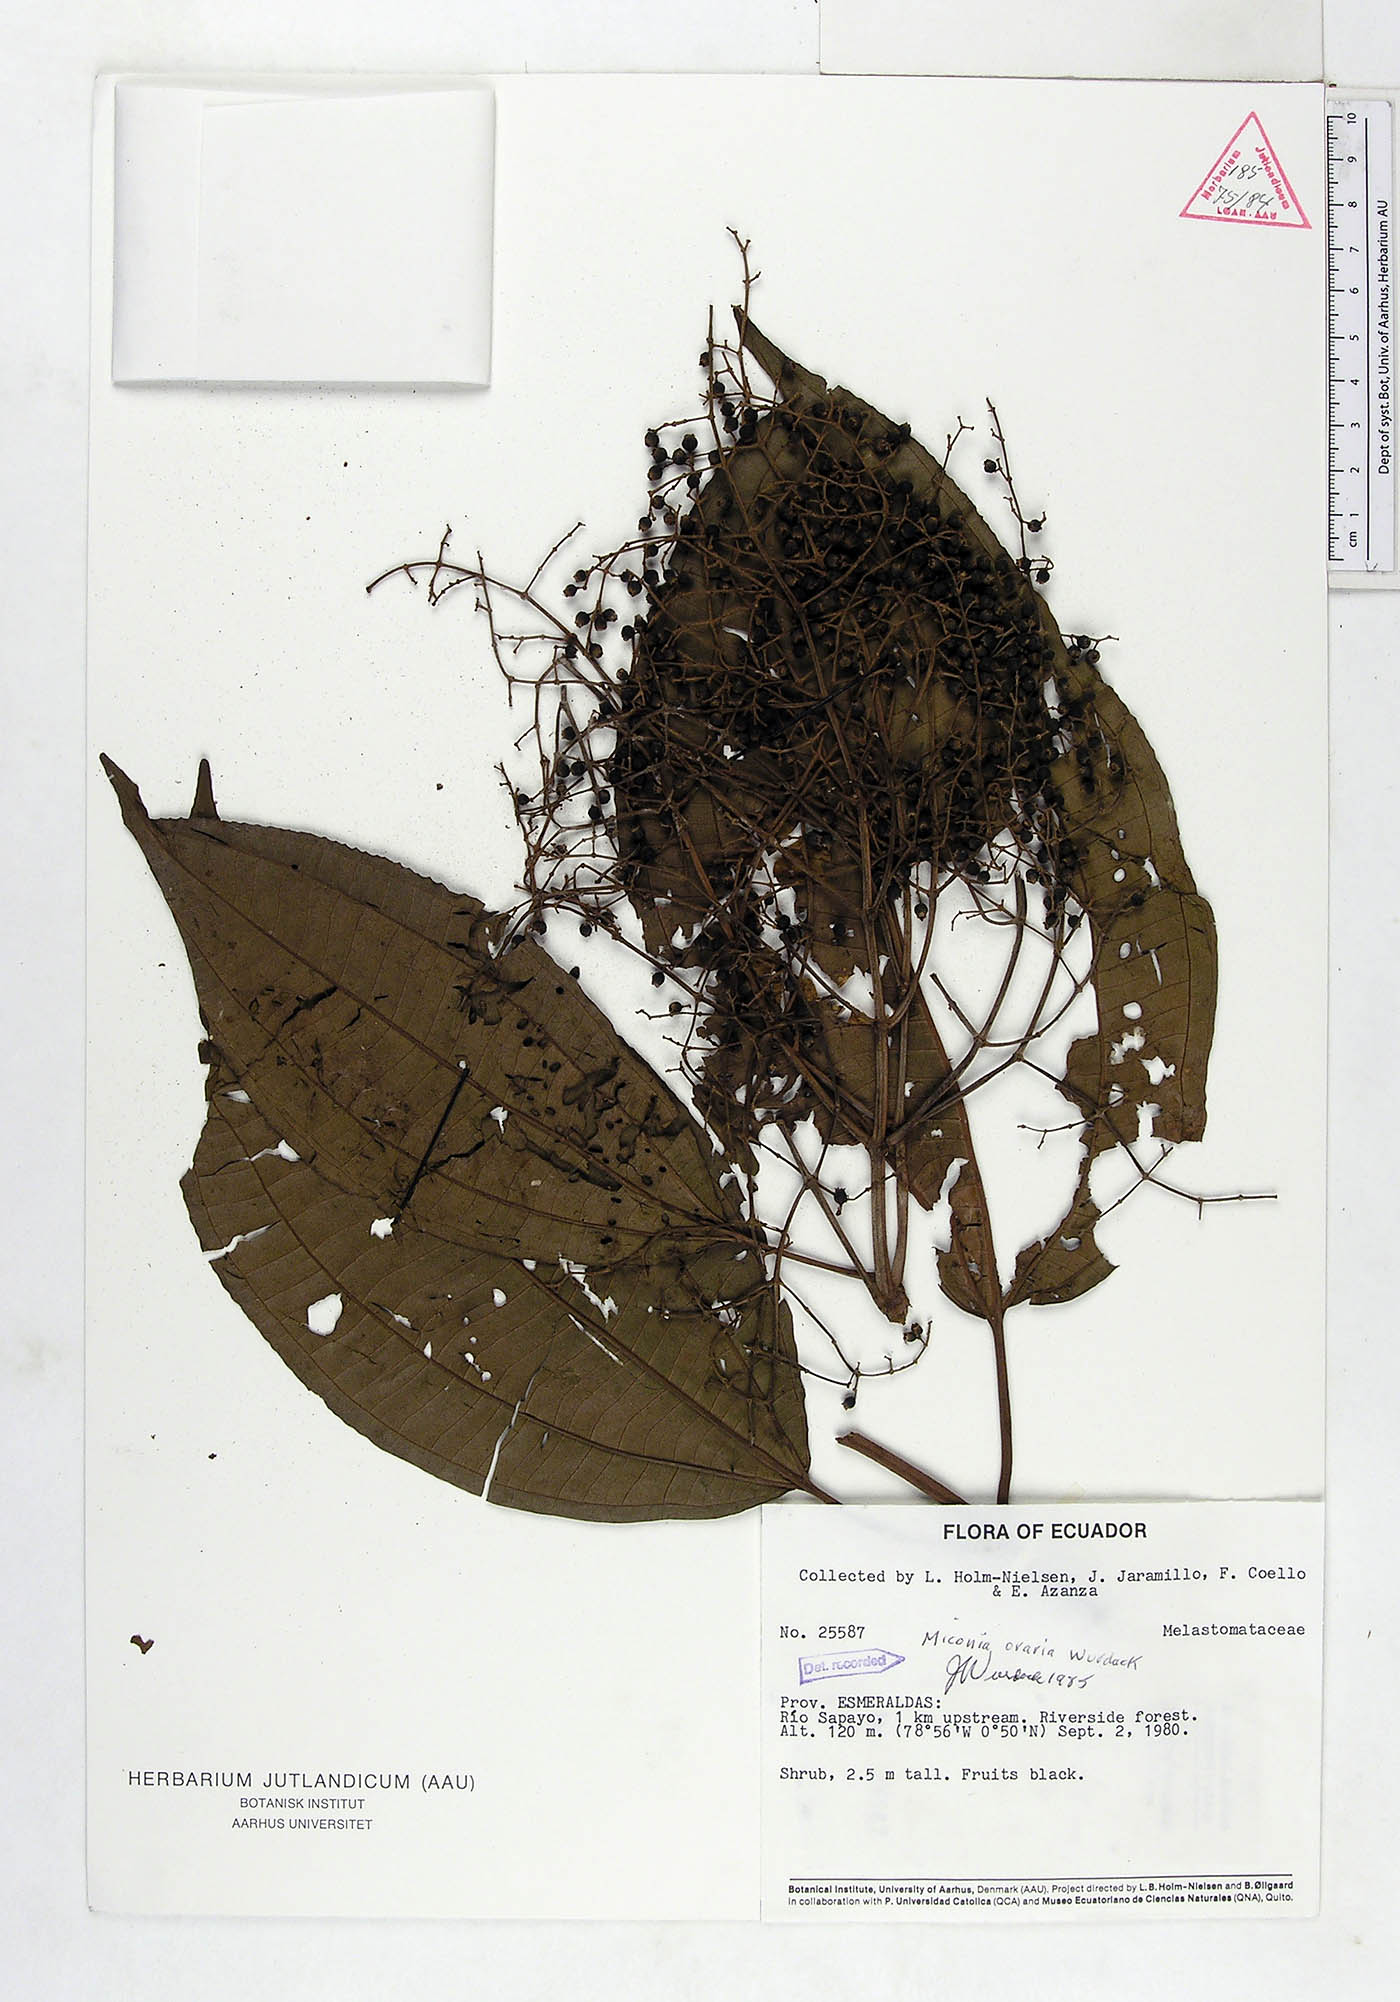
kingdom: Plantae
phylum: Tracheophyta
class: Magnoliopsida
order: Myrtales
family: Melastomataceae
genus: Miconia
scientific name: Miconia oraria
